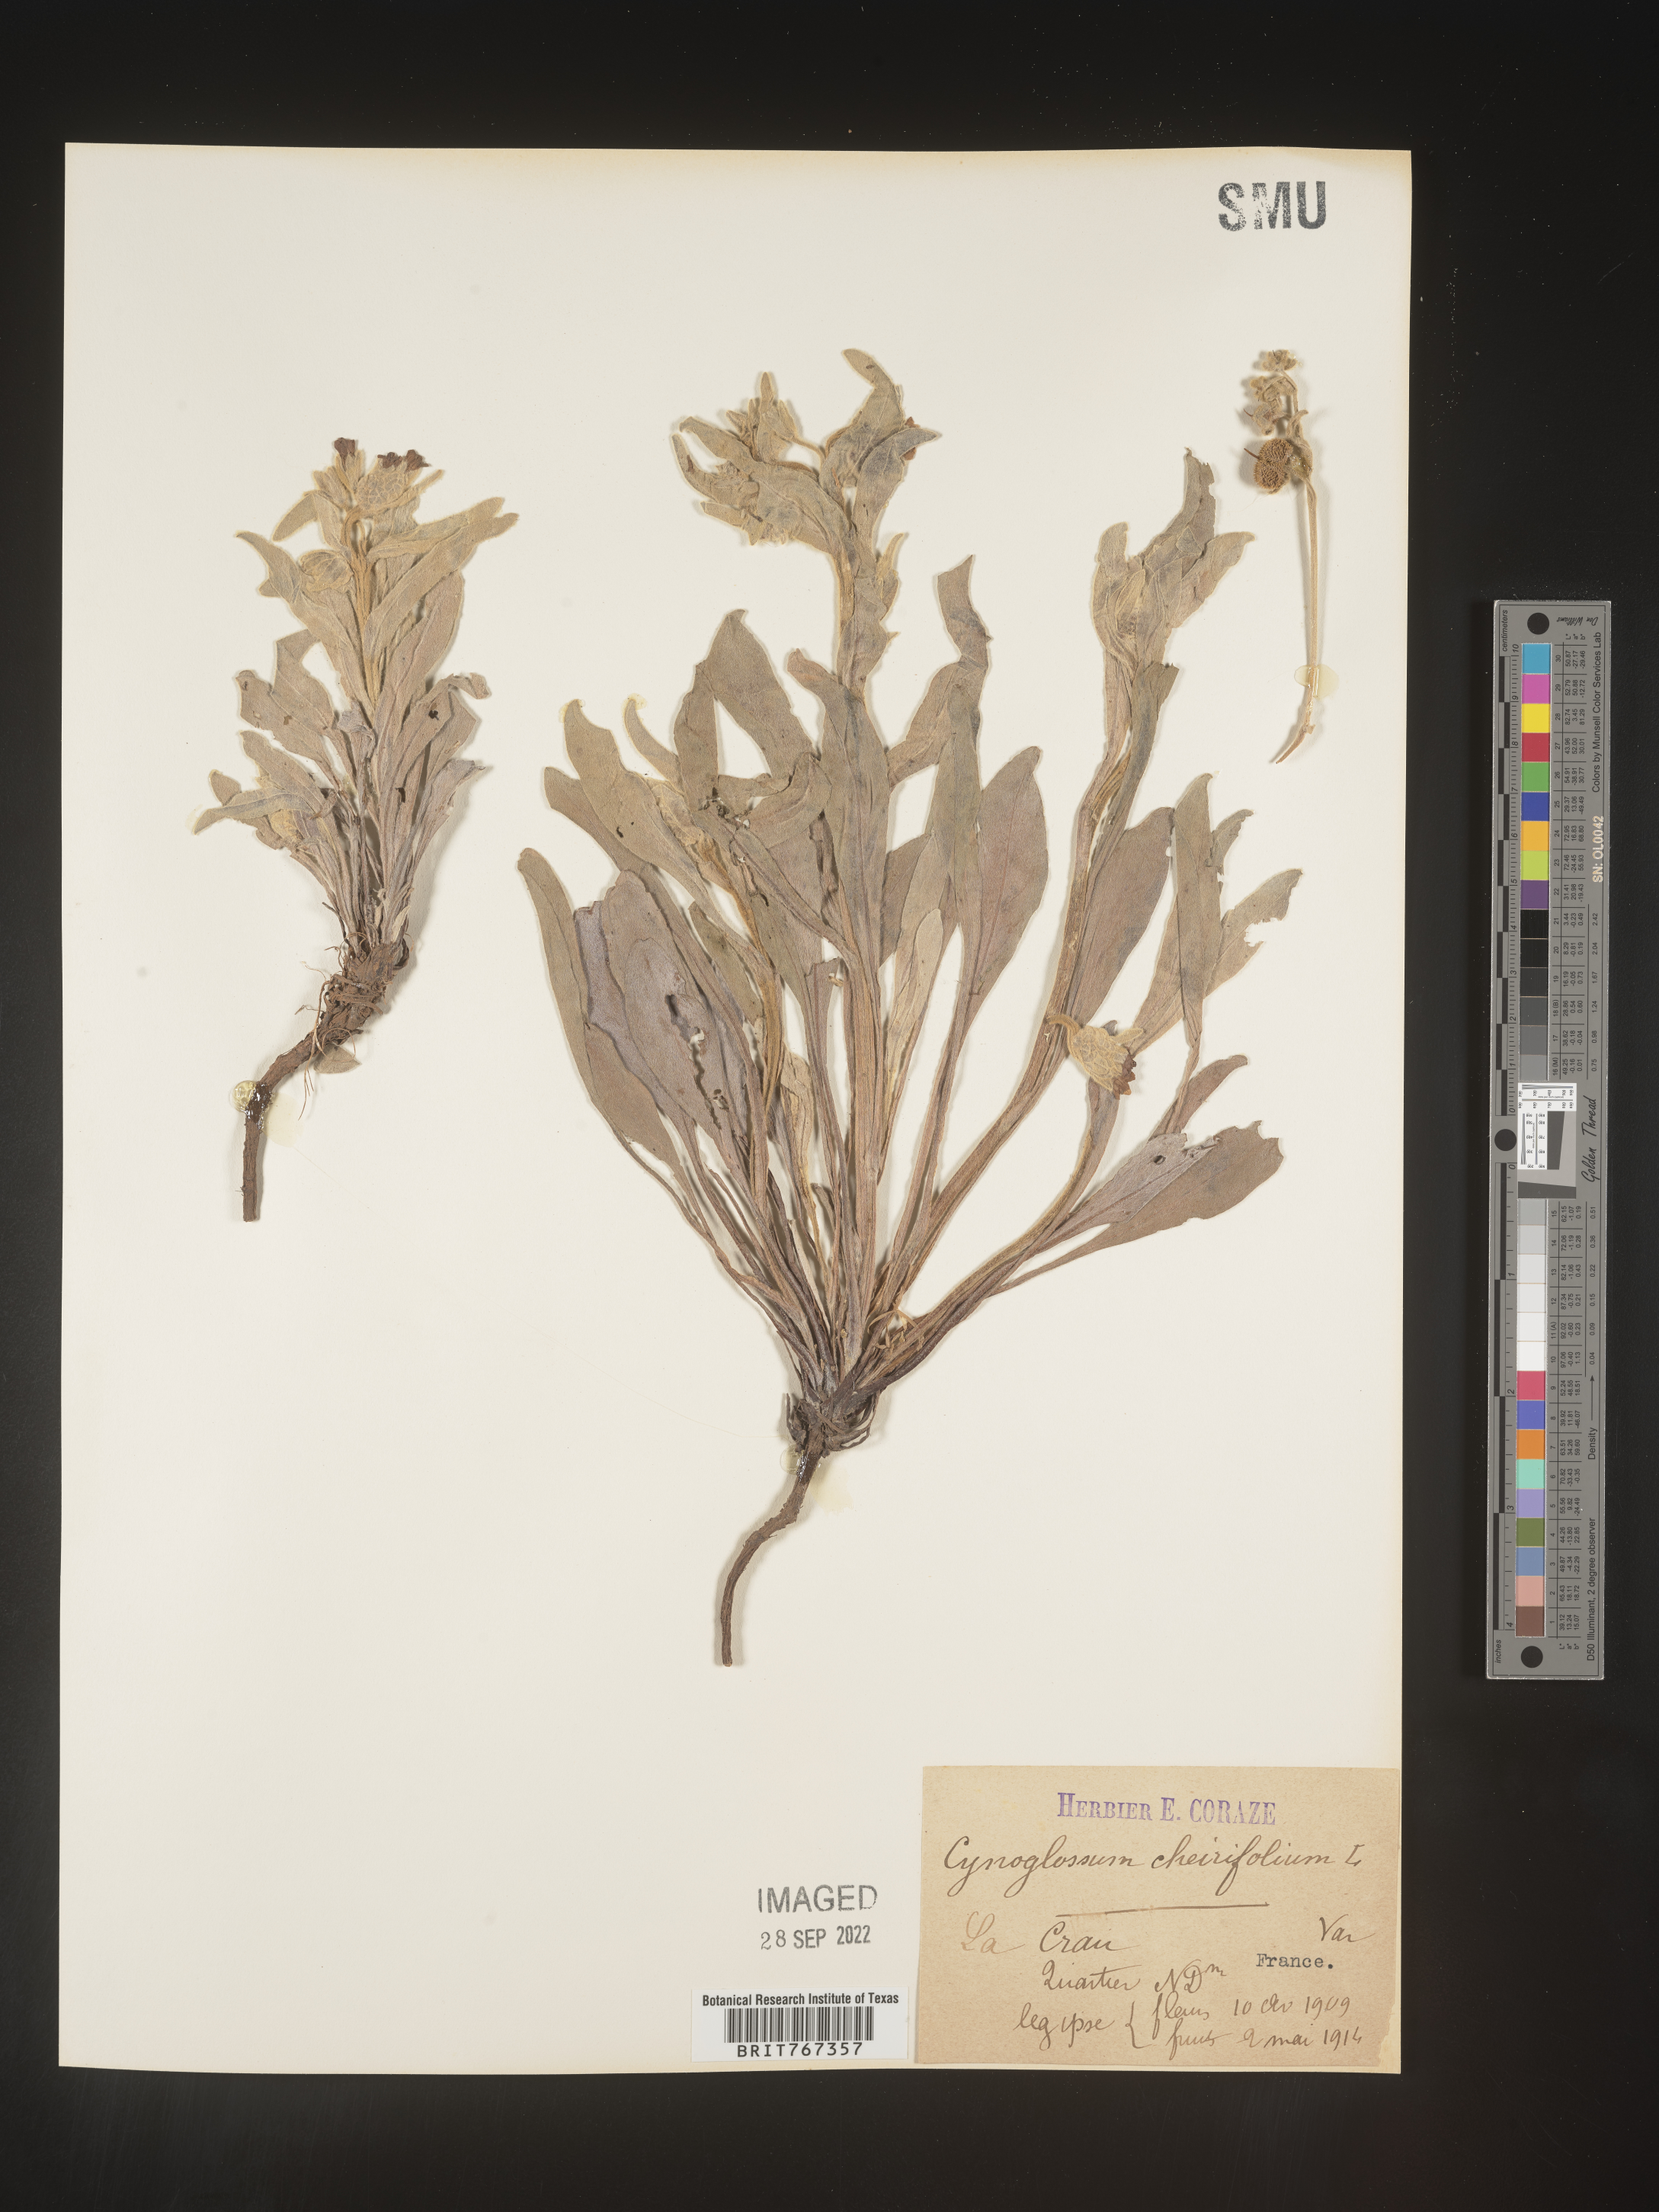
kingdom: Plantae
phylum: Tracheophyta
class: Magnoliopsida
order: Boraginales
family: Boraginaceae
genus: Cynoglossum
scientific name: Cynoglossum
